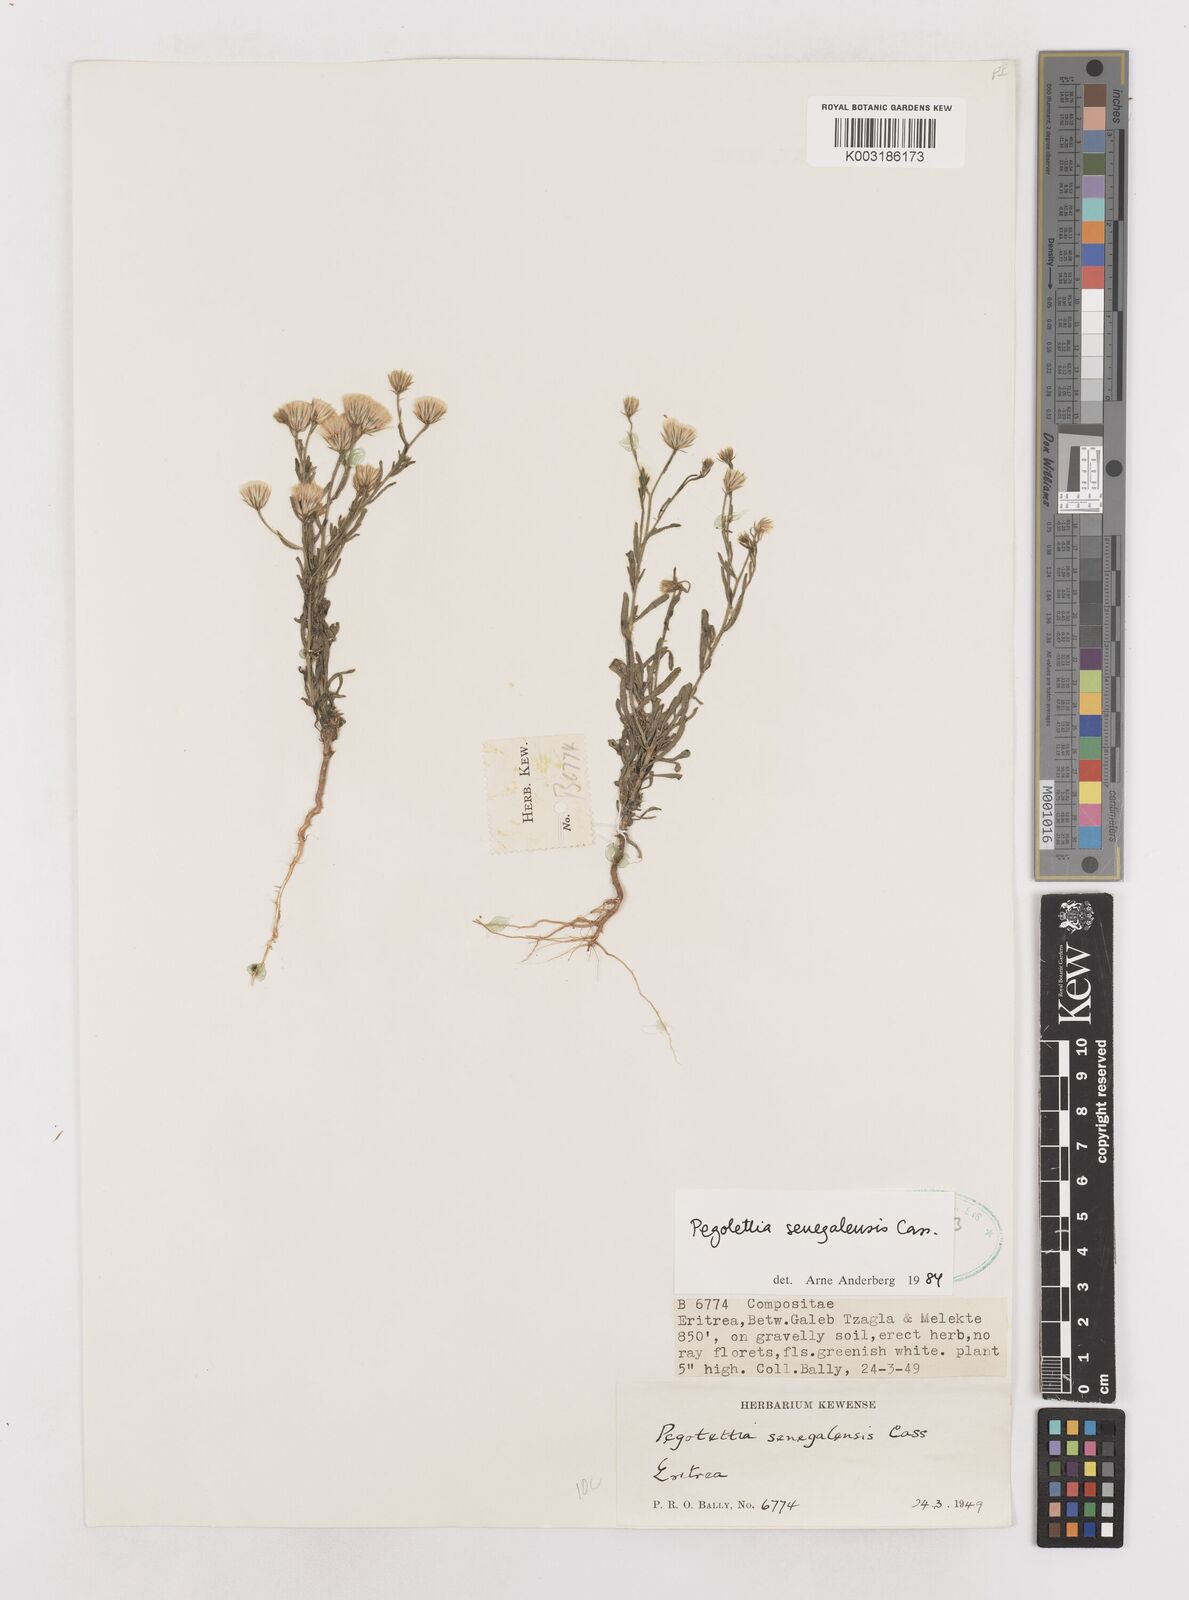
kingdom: Plantae
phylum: Tracheophyta
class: Magnoliopsida
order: Asterales
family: Asteraceae
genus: Pegolettia
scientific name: Pegolettia senegalensis
